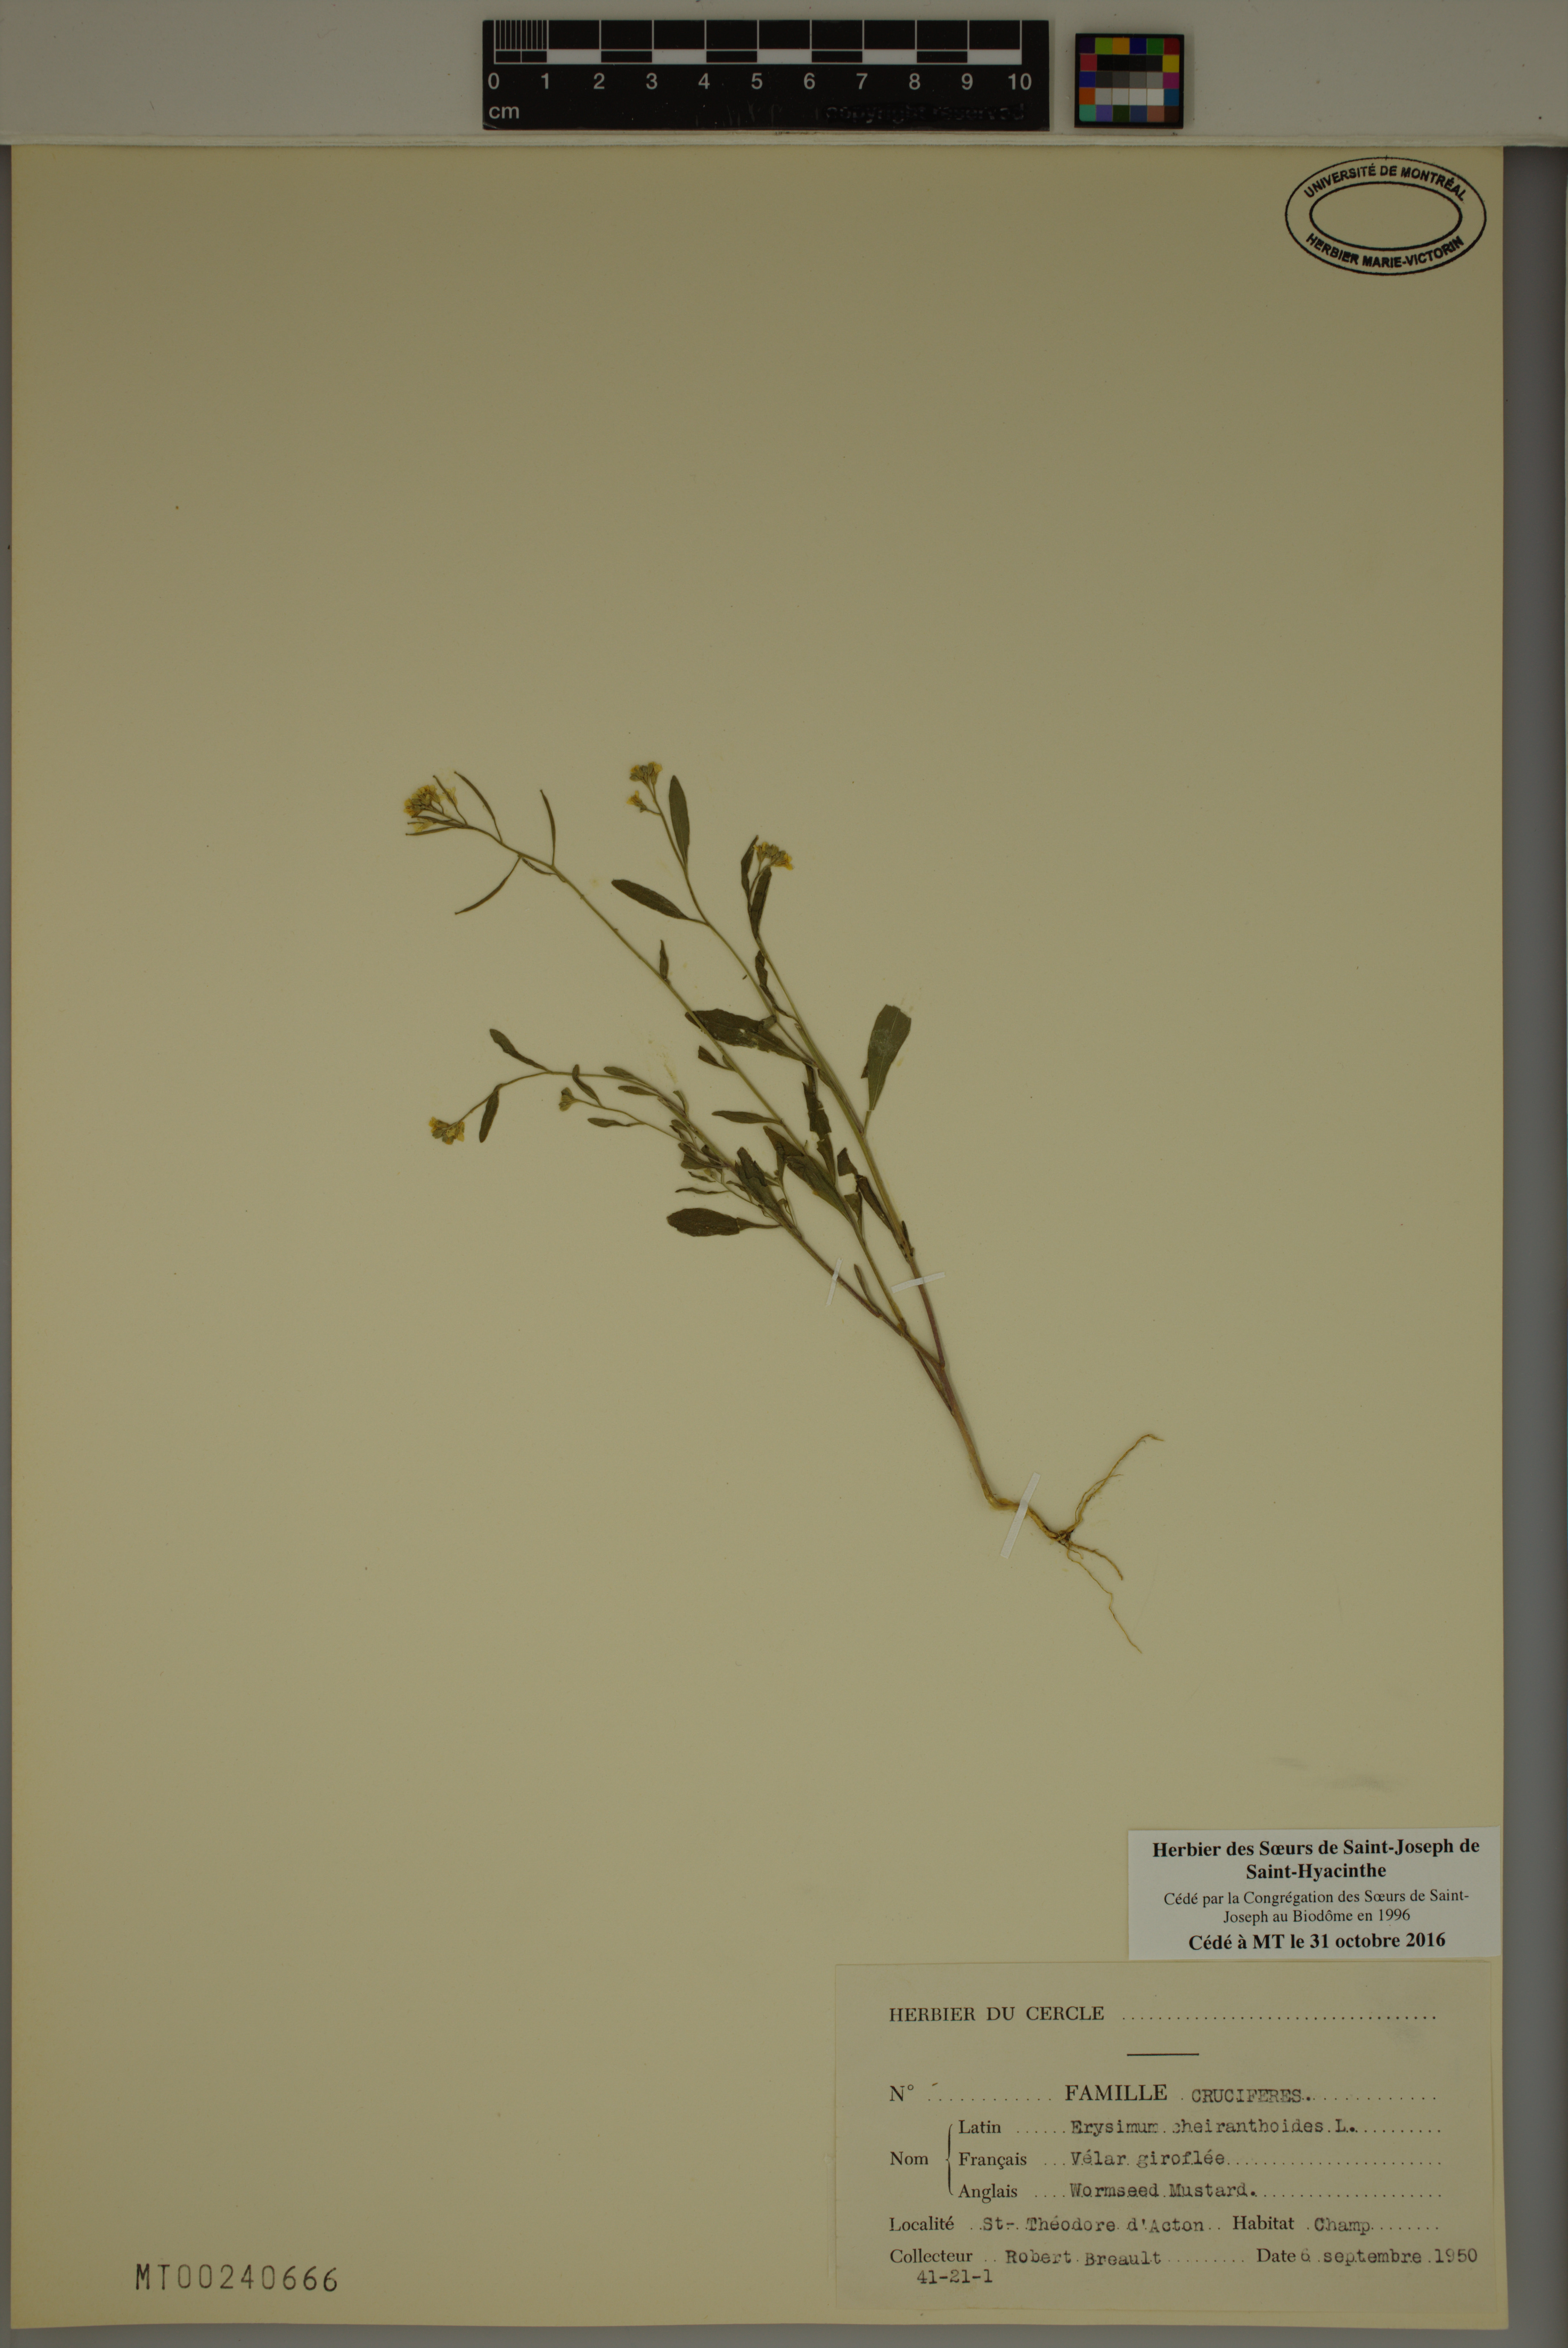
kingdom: Plantae
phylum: Tracheophyta
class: Magnoliopsida
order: Brassicales
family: Brassicaceae
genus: Erysimum
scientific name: Erysimum cheiranthoides
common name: Treacle mustard
